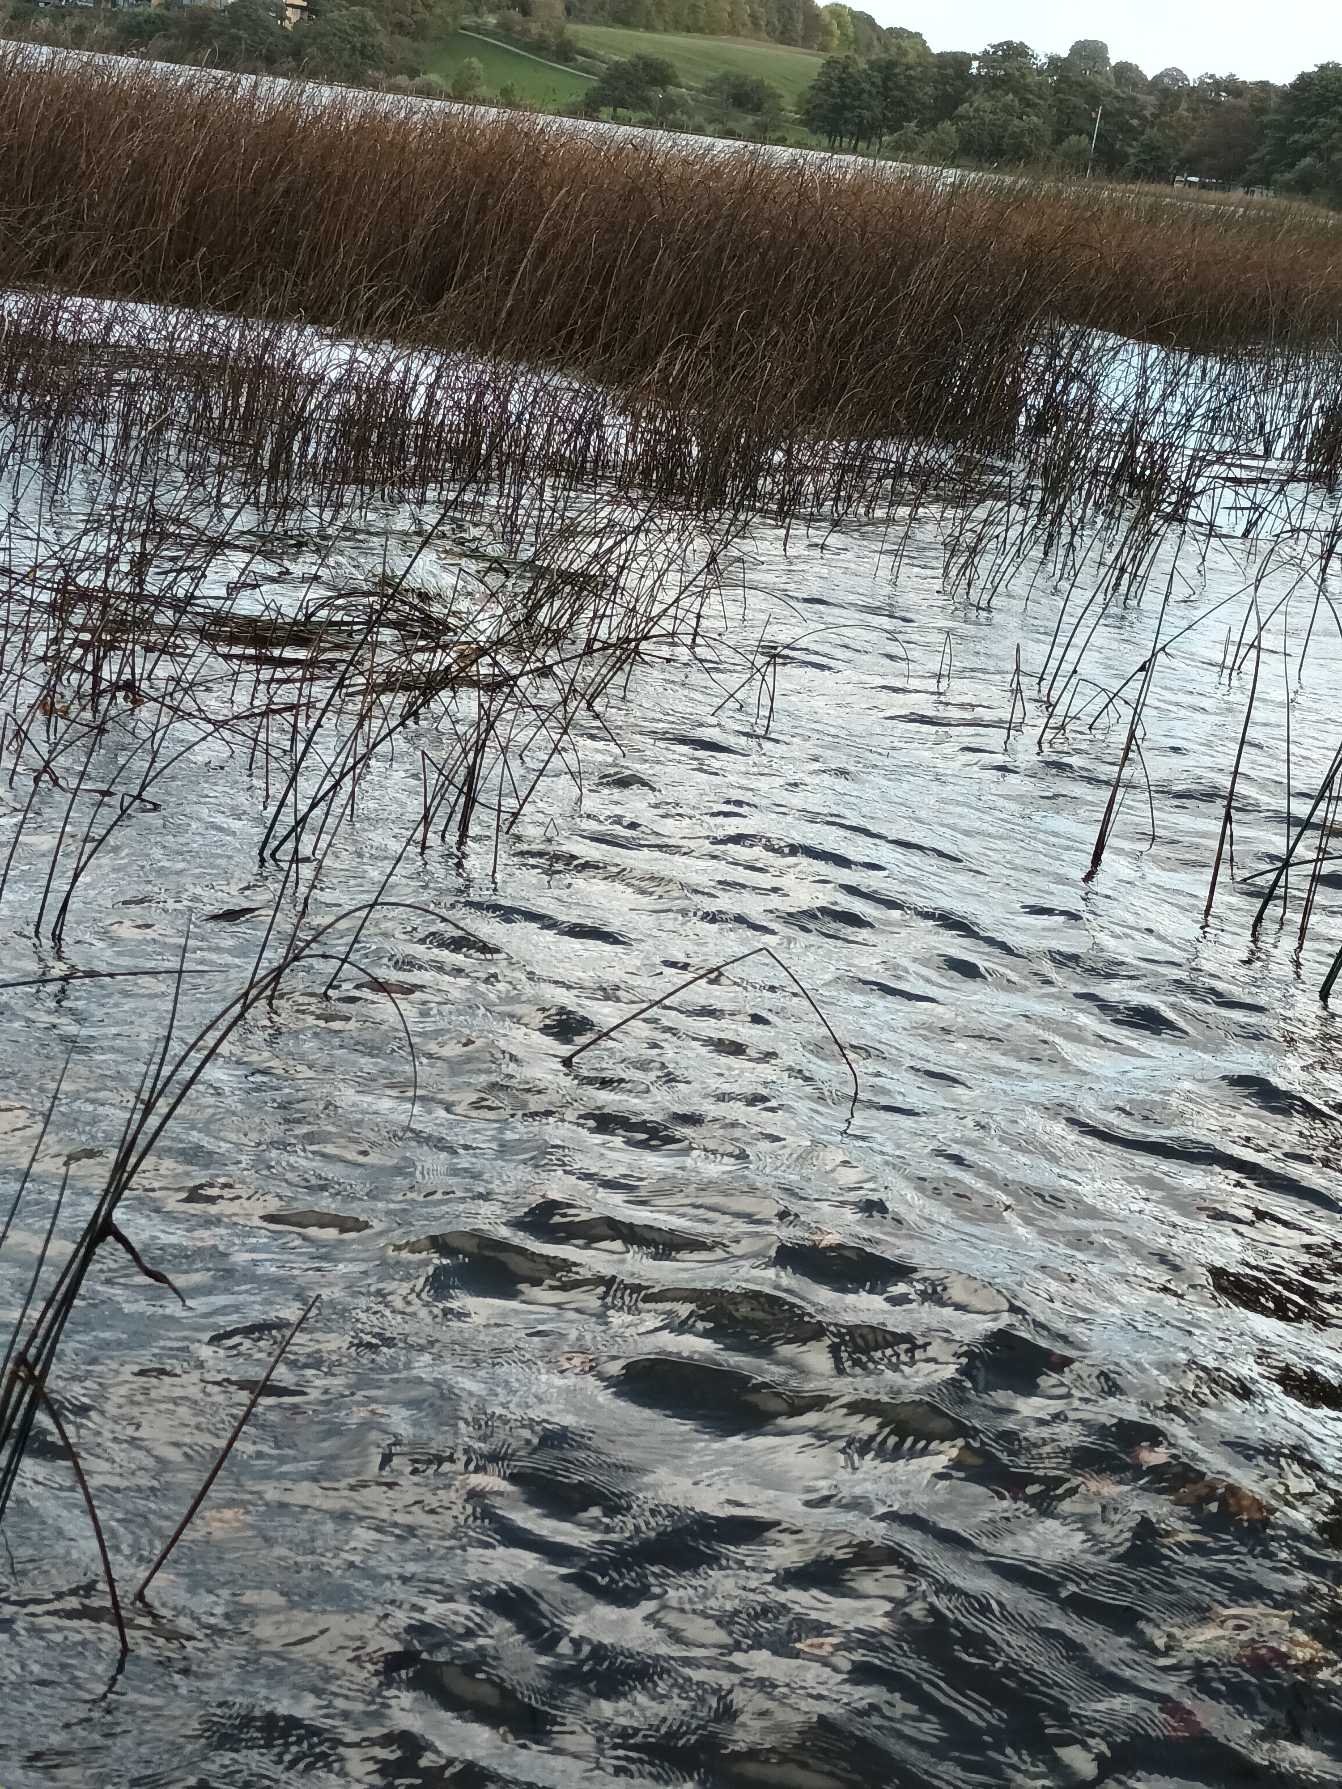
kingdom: Plantae
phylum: Tracheophyta
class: Liliopsida
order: Poales
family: Cyperaceae
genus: Schoenoplectus
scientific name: Schoenoplectus lacustris
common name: Sø-kogleaks
